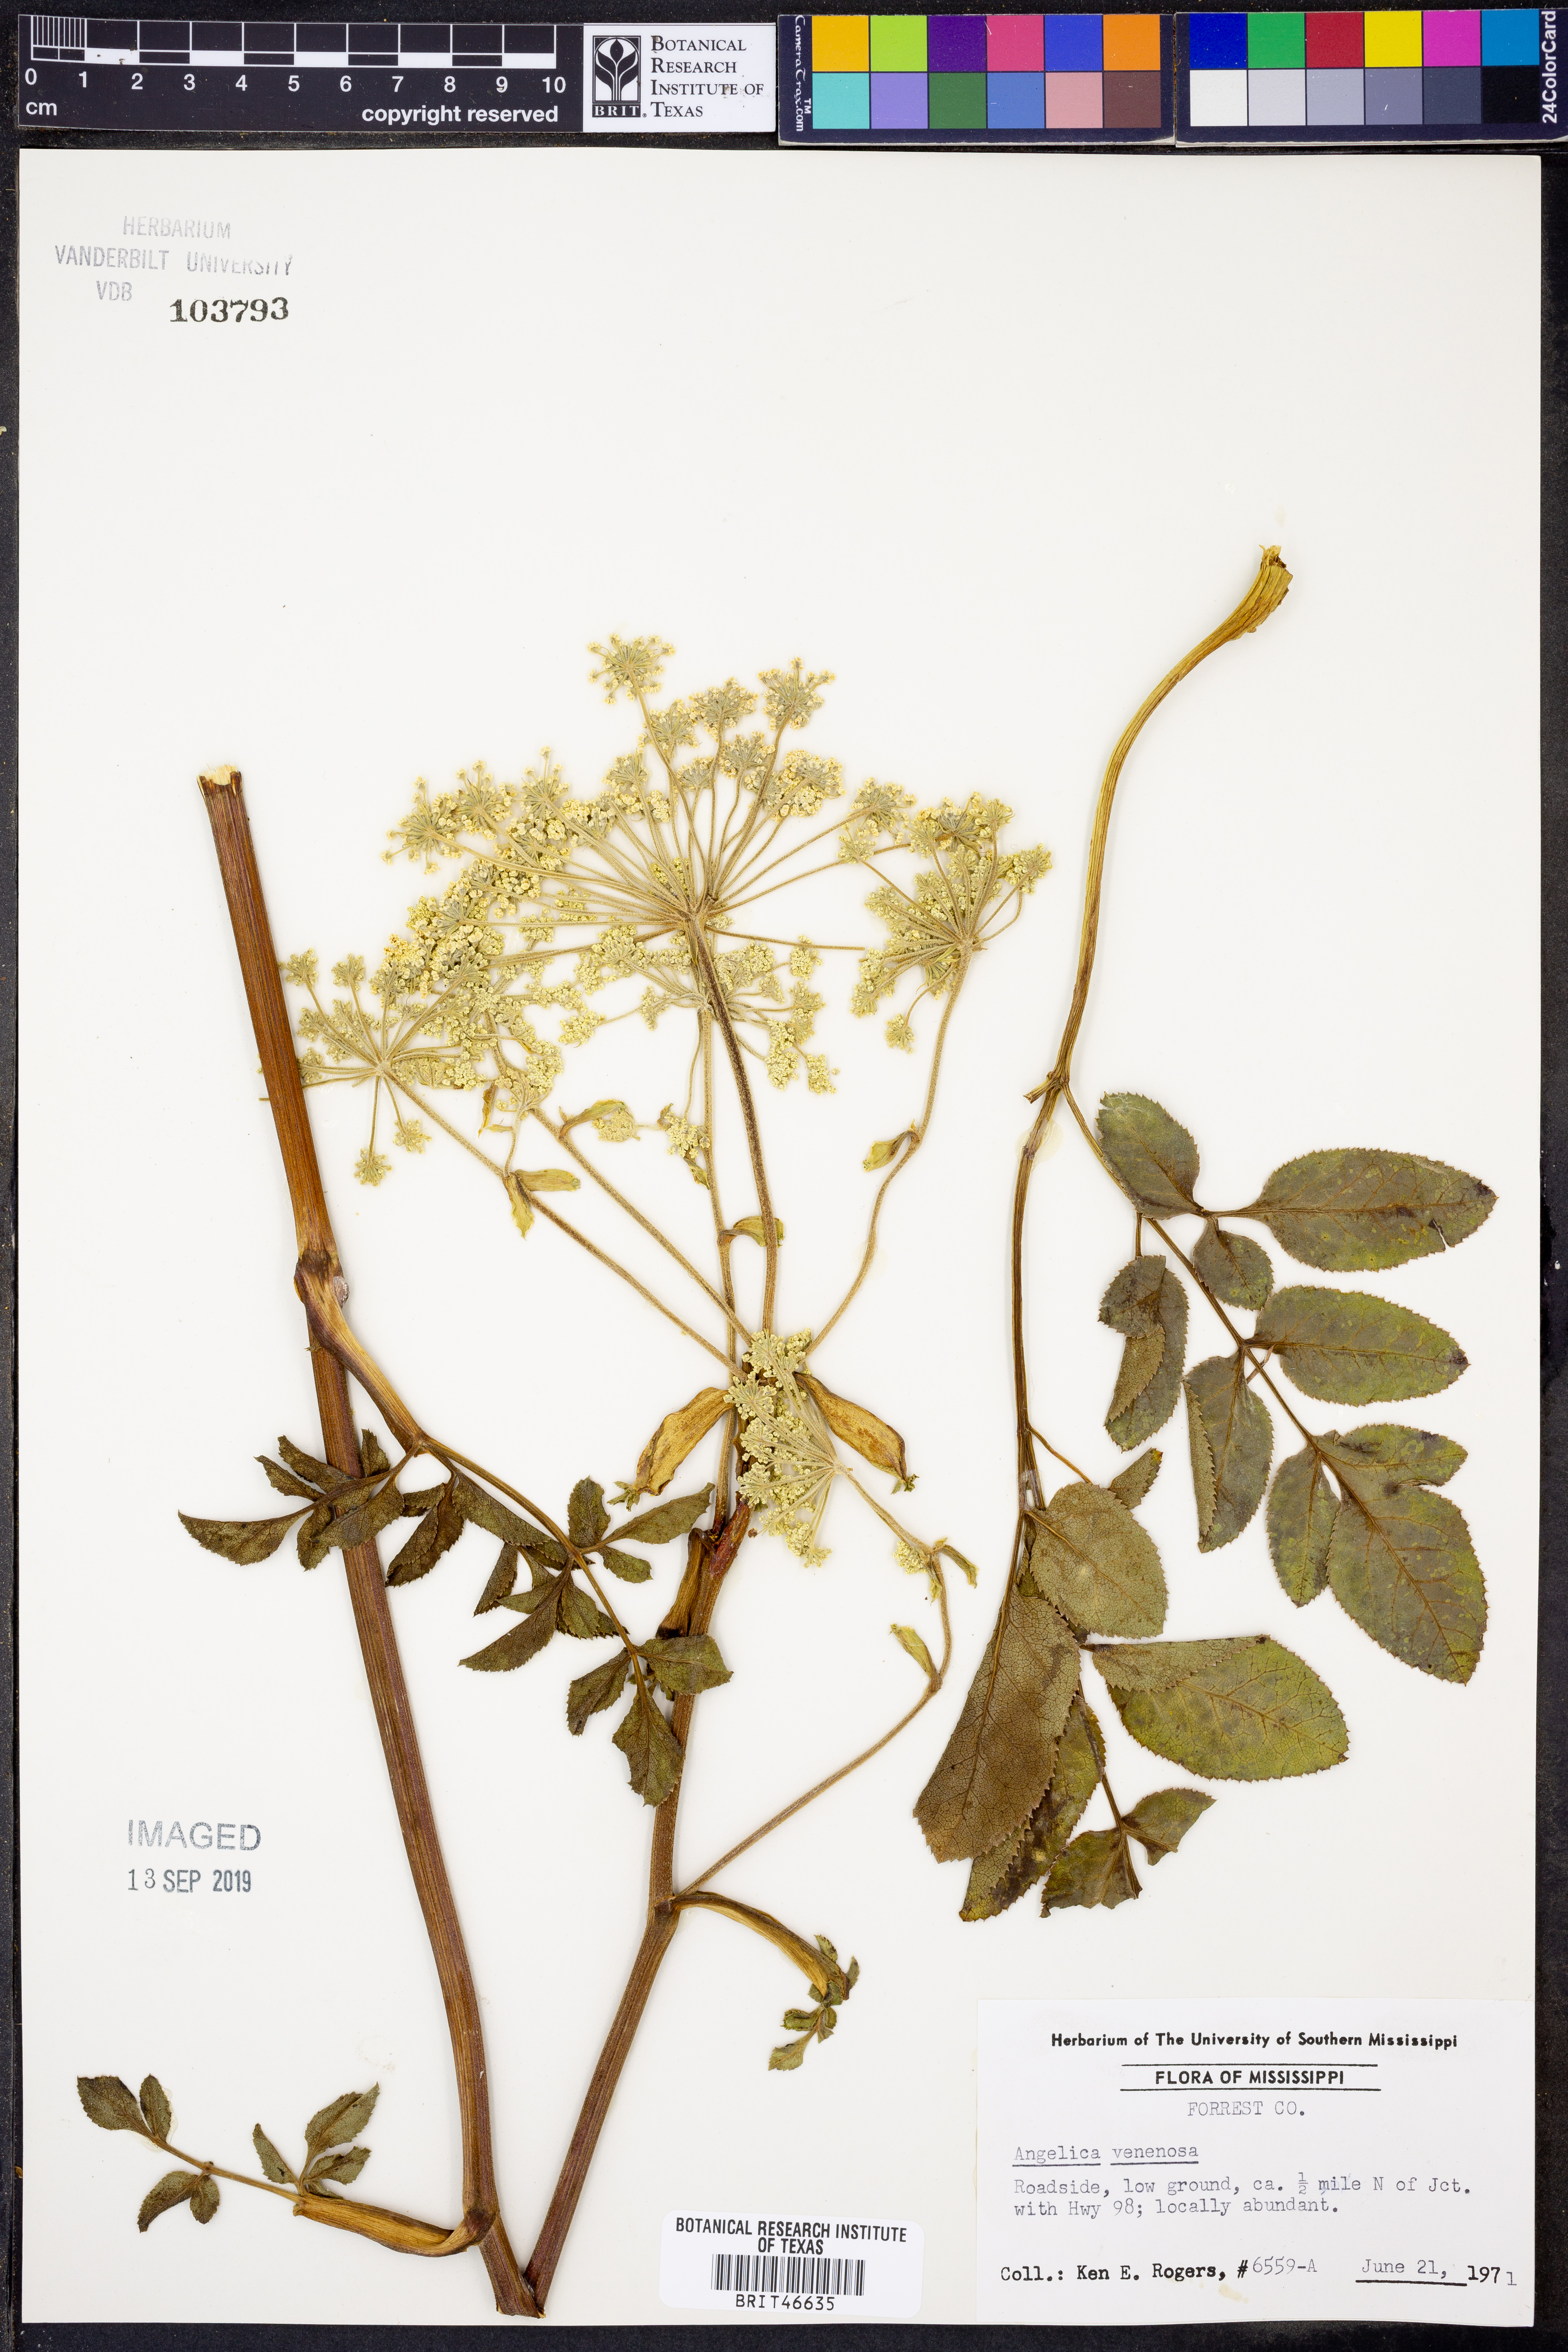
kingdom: Plantae
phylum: Tracheophyta
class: Magnoliopsida
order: Apiales
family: Apiaceae
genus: Angelica
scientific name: Angelica venenosa
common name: Hairy angelica
